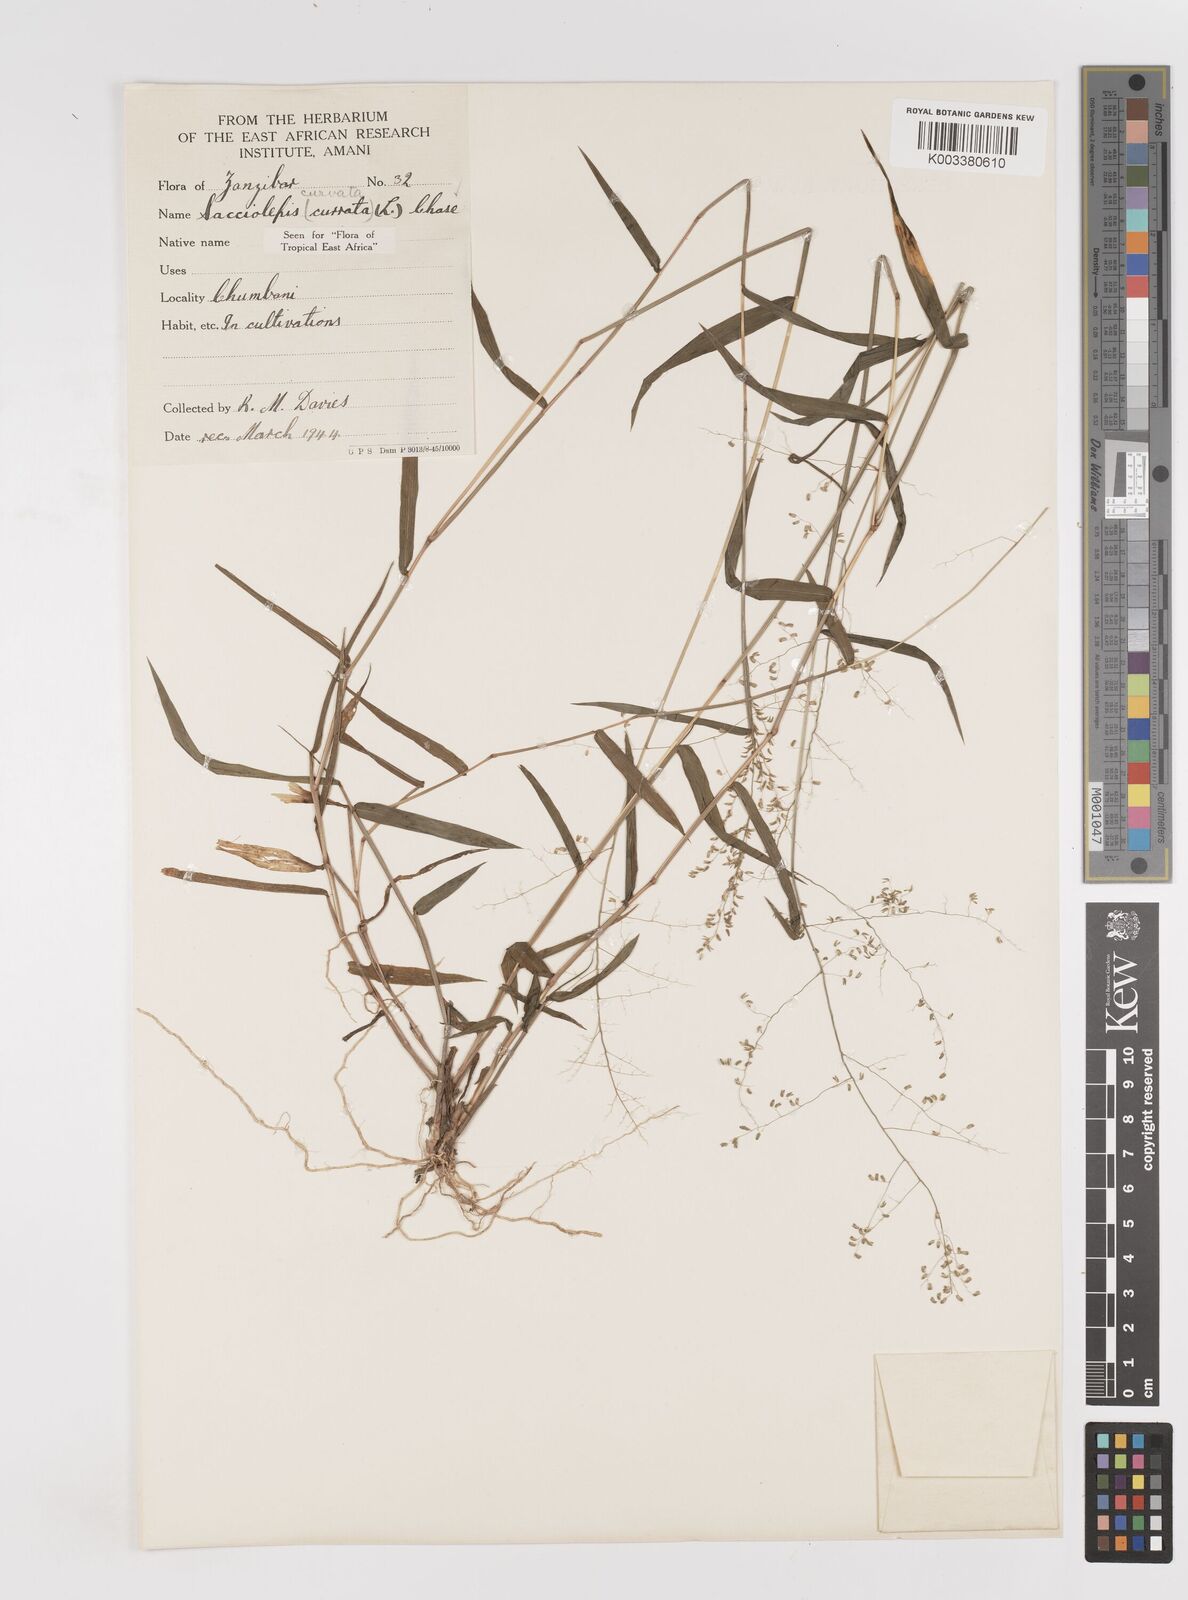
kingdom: Plantae
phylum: Tracheophyta
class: Liliopsida
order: Poales
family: Poaceae
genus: Sacciolepis
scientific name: Sacciolepis curvata
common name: Forest hood grass
